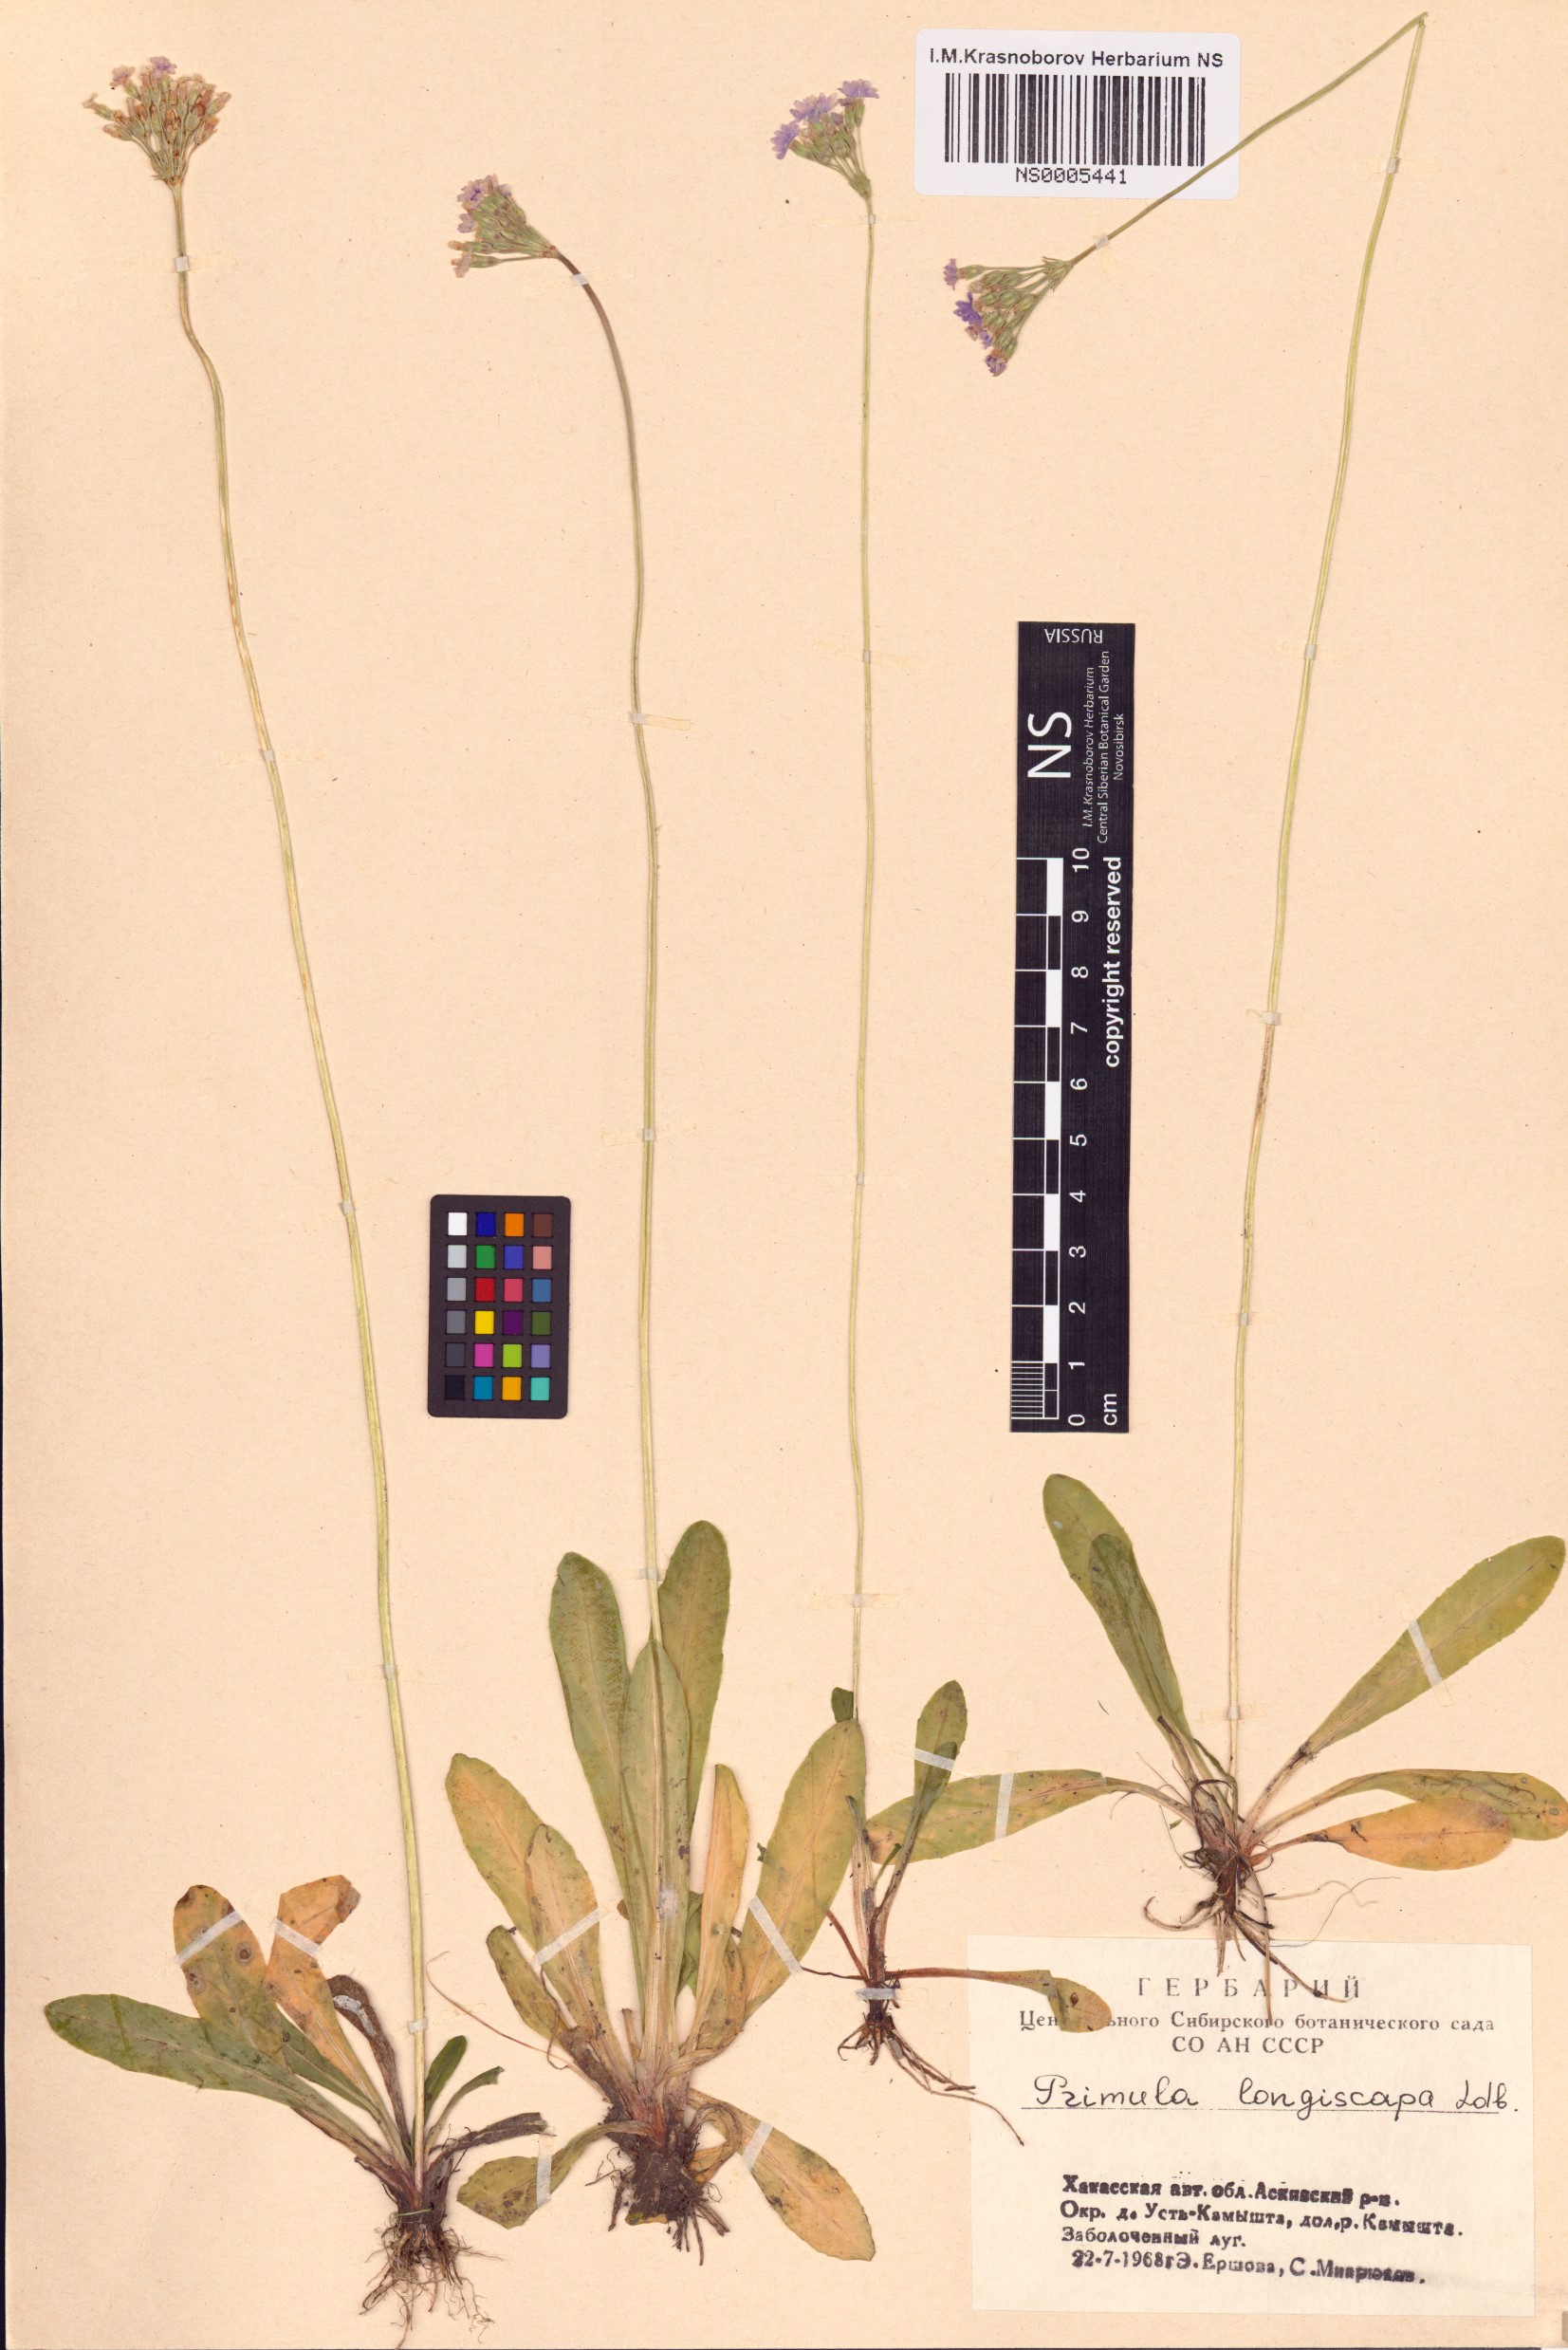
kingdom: Plantae
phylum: Tracheophyta
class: Magnoliopsida
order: Ericales
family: Primulaceae
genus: Primula
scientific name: Primula longiscapa
